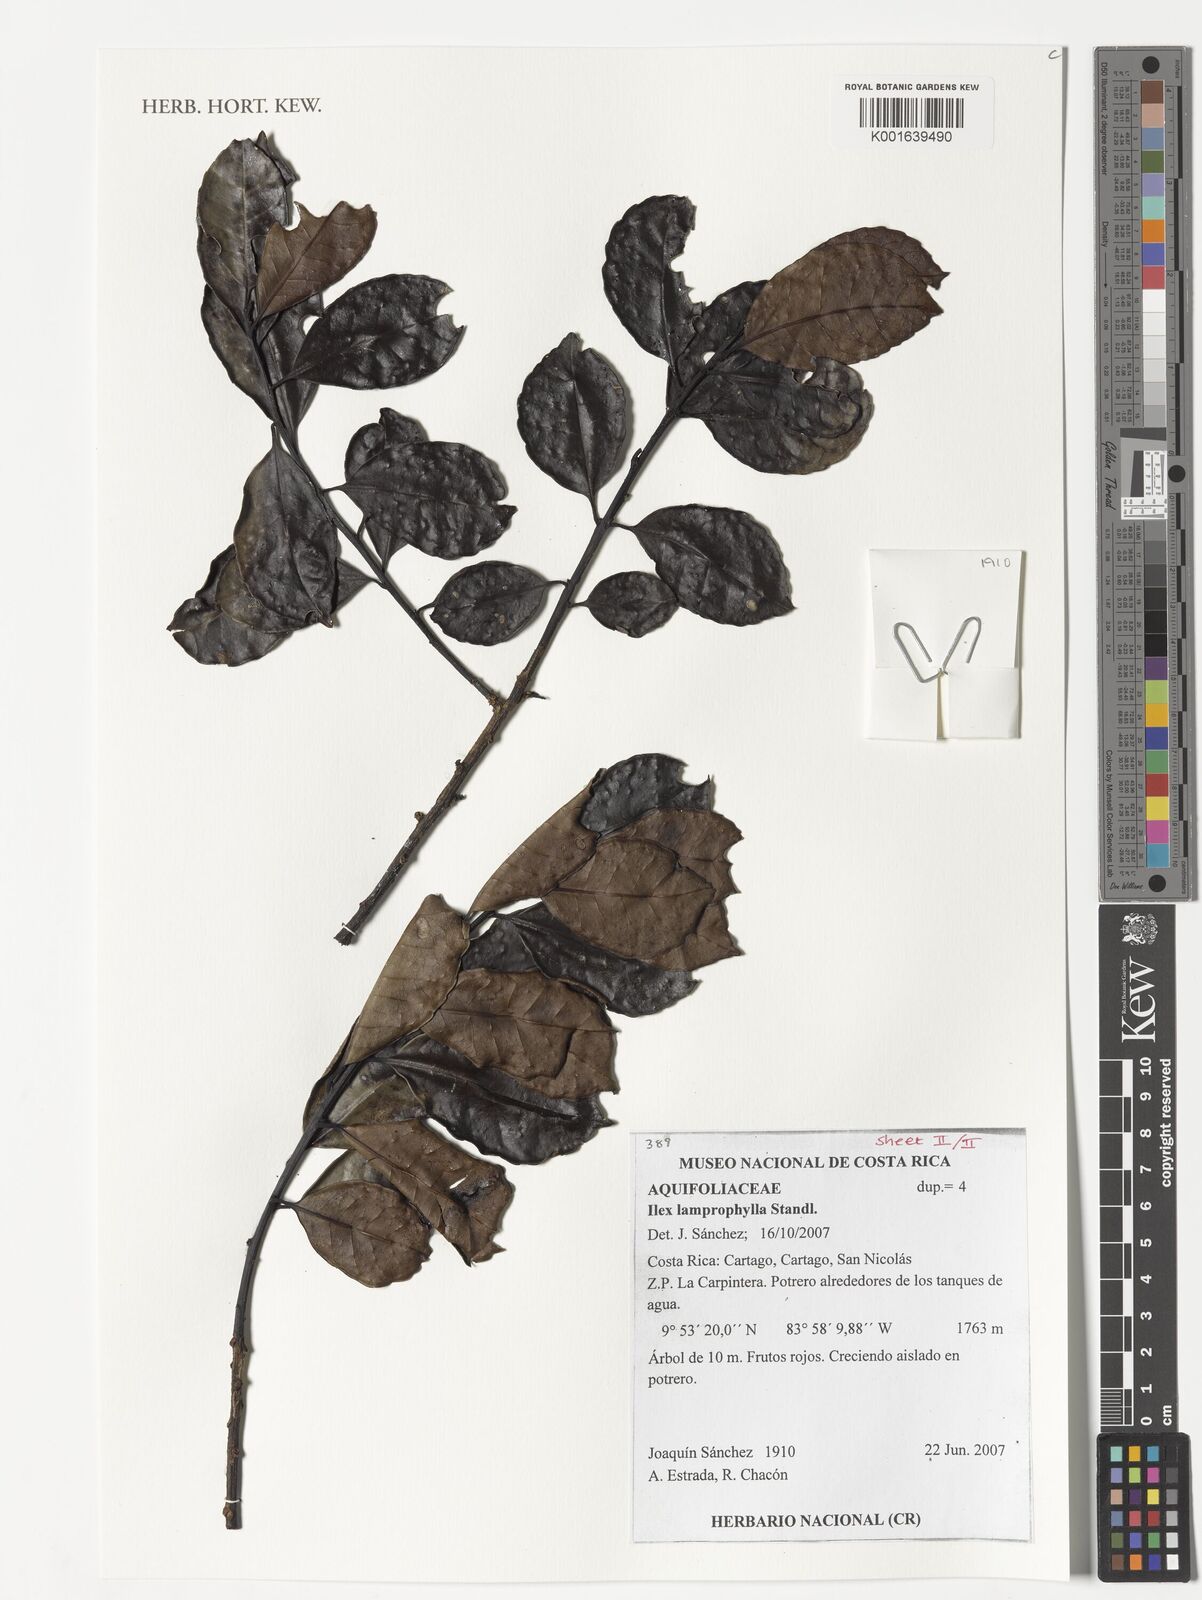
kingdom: Plantae
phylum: Tracheophyta
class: Magnoliopsida
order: Aquifoliales
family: Aquifoliaceae
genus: Ilex
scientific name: Ilex lamprophylla
